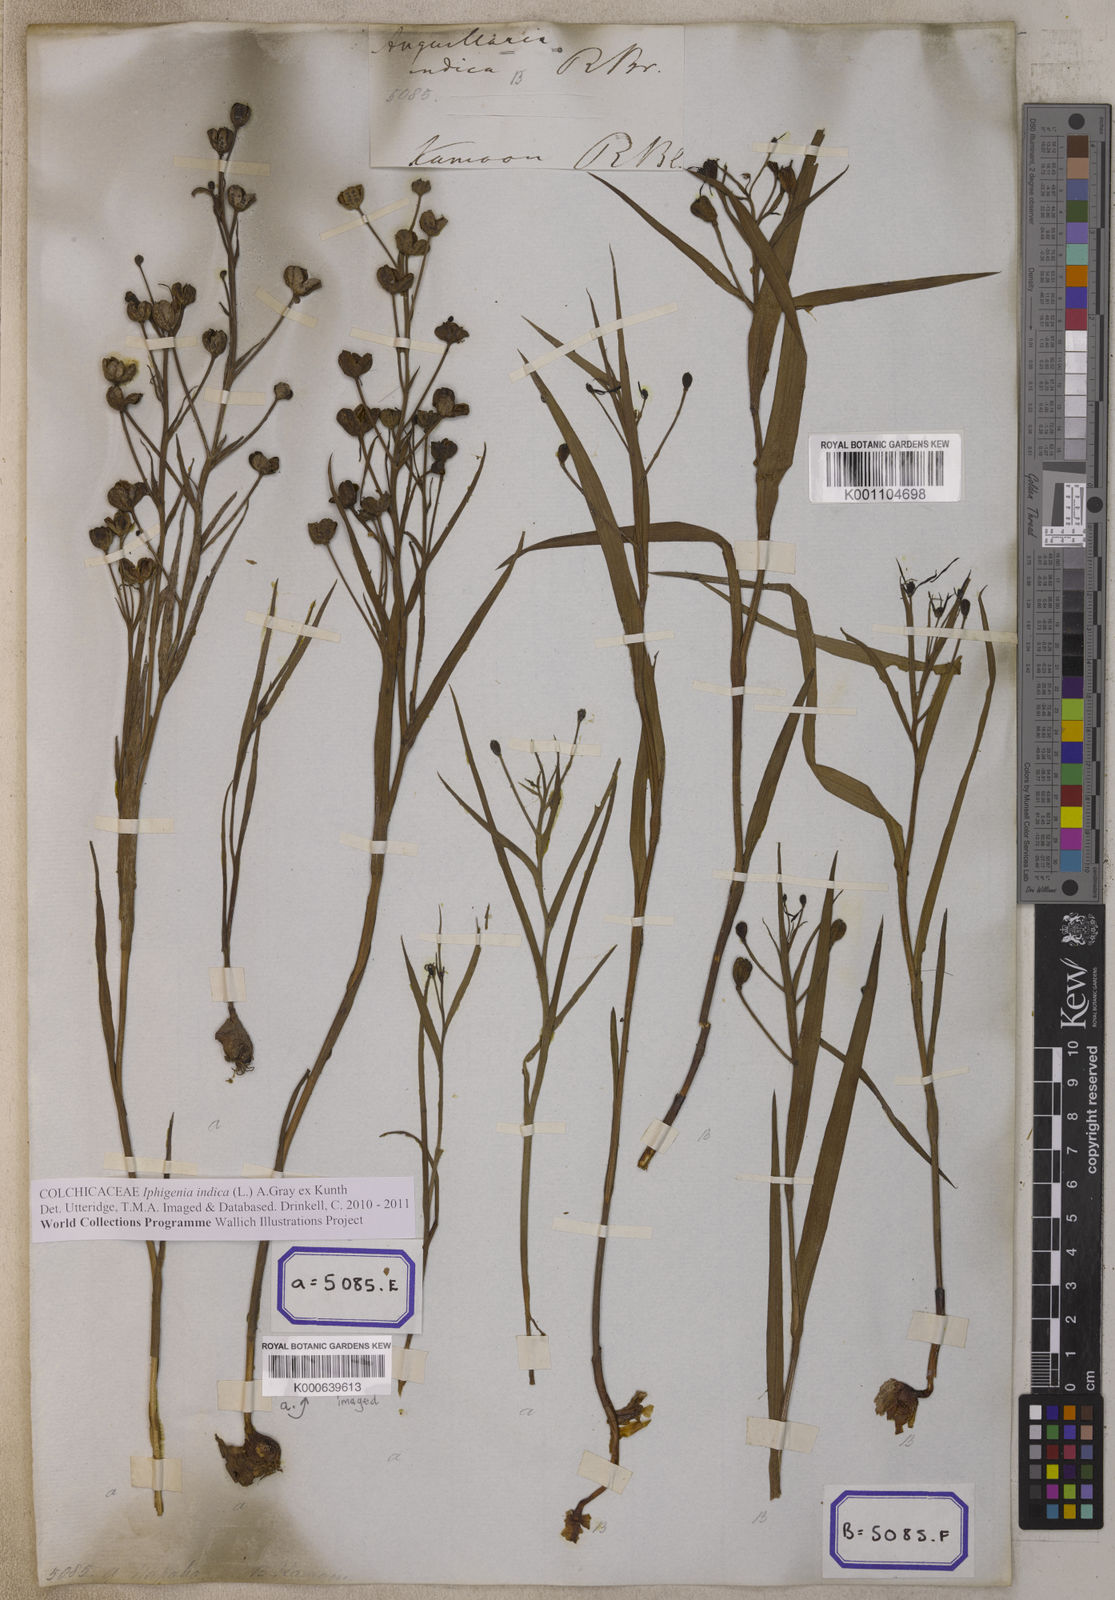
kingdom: Plantae
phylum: Tracheophyta
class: Liliopsida
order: Liliales
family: Colchicaceae
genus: Iphigenia
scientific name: Iphigenia indica
